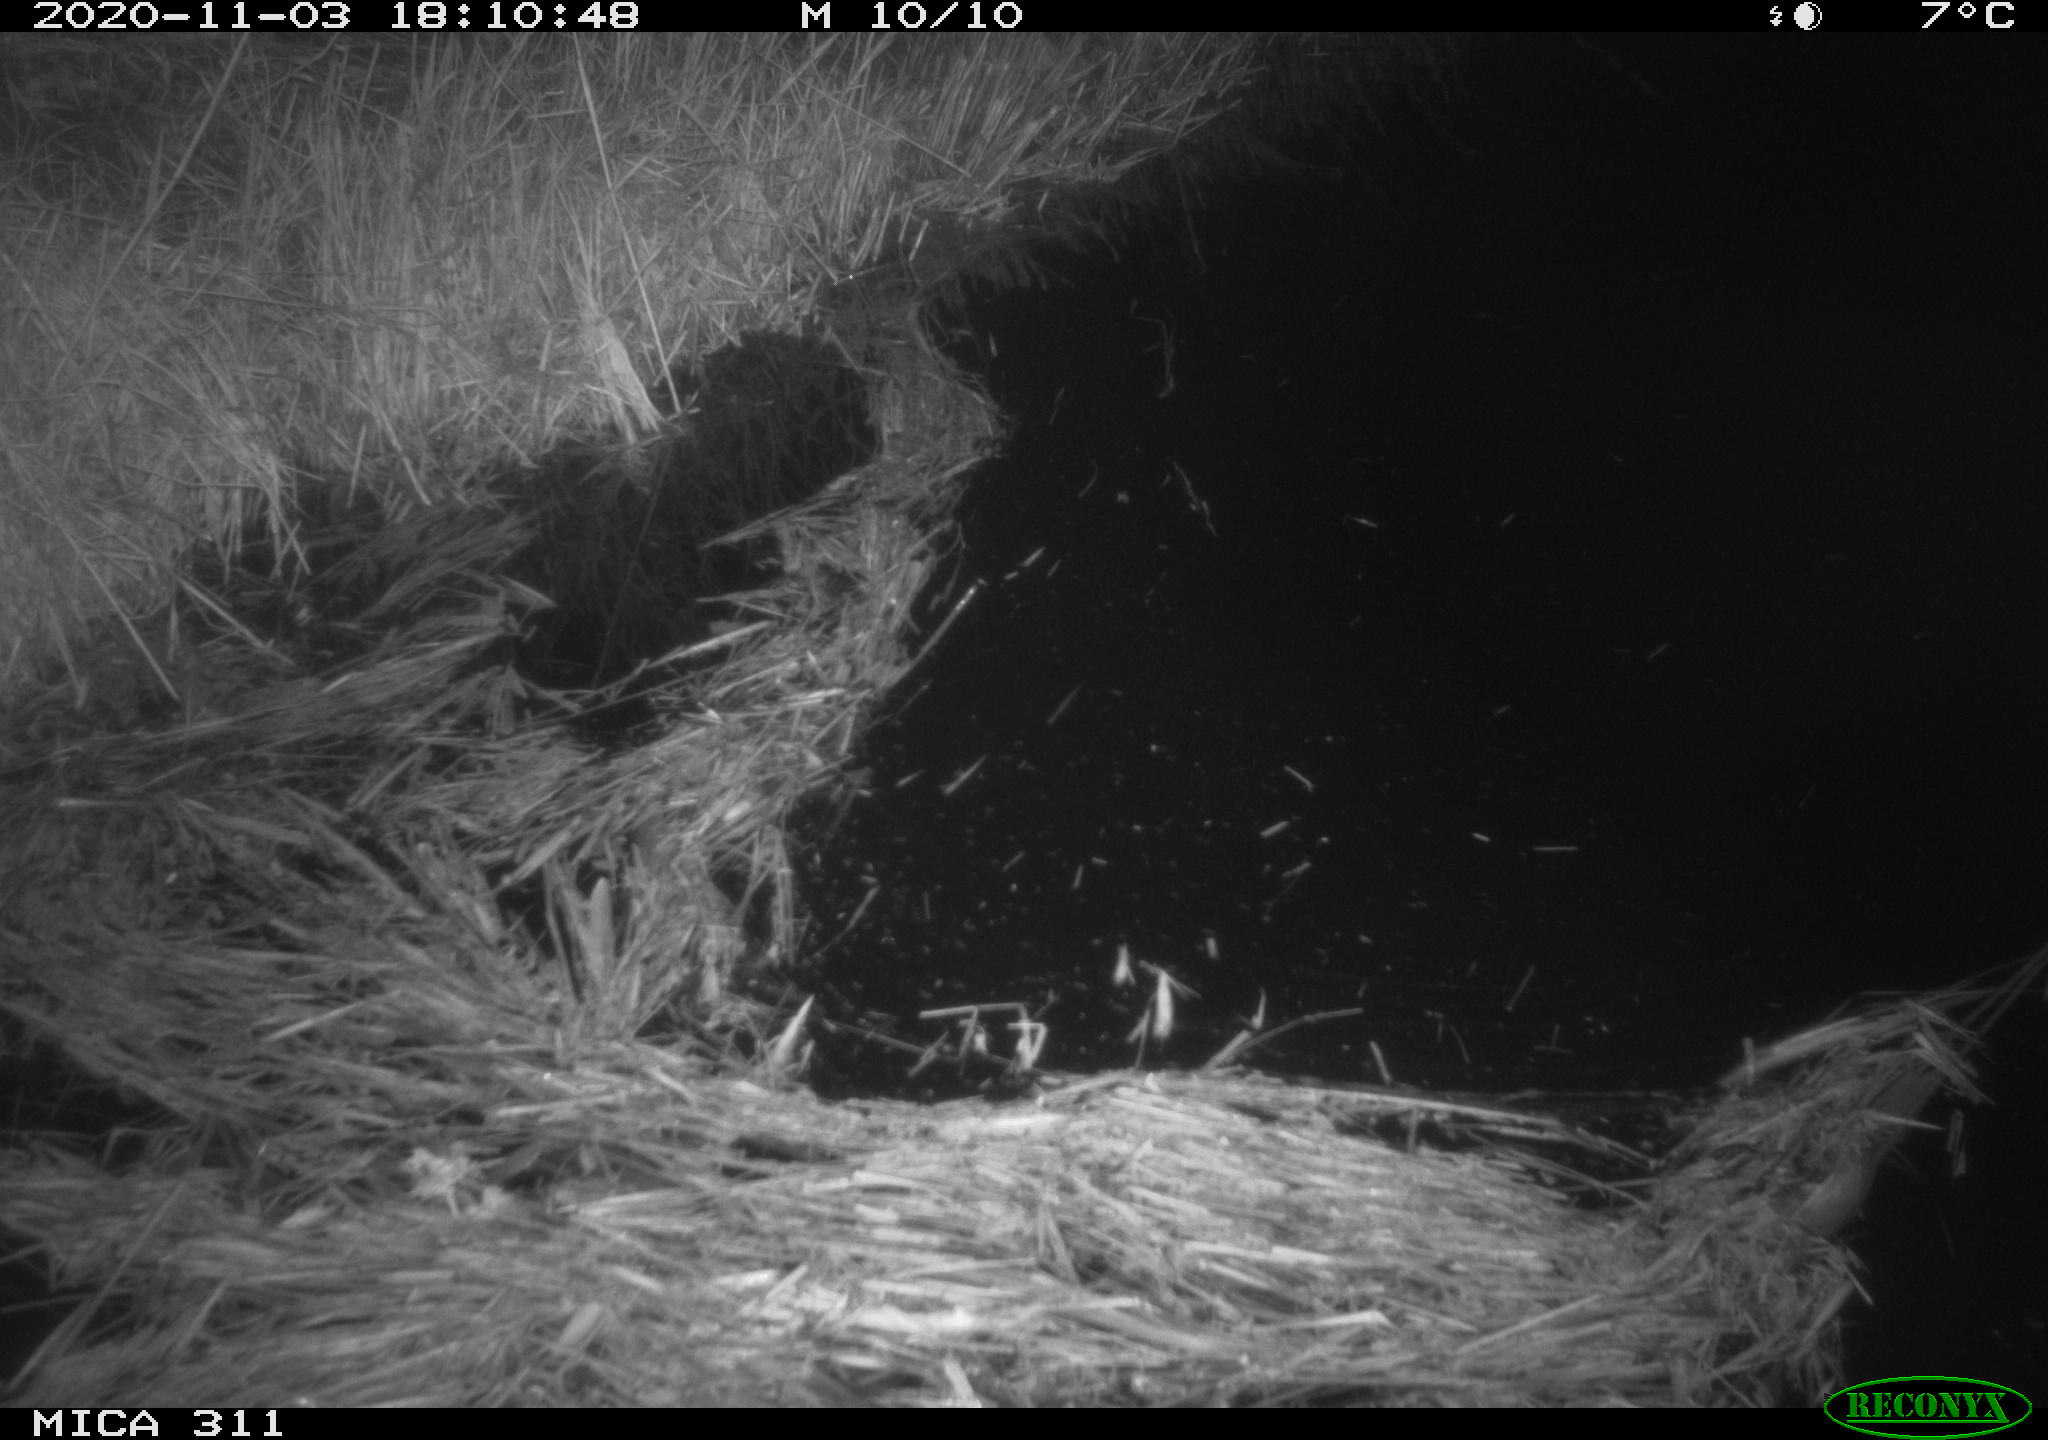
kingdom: Animalia
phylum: Chordata
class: Mammalia
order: Rodentia
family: Muridae
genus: Rattus
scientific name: Rattus norvegicus
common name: Brown rat
